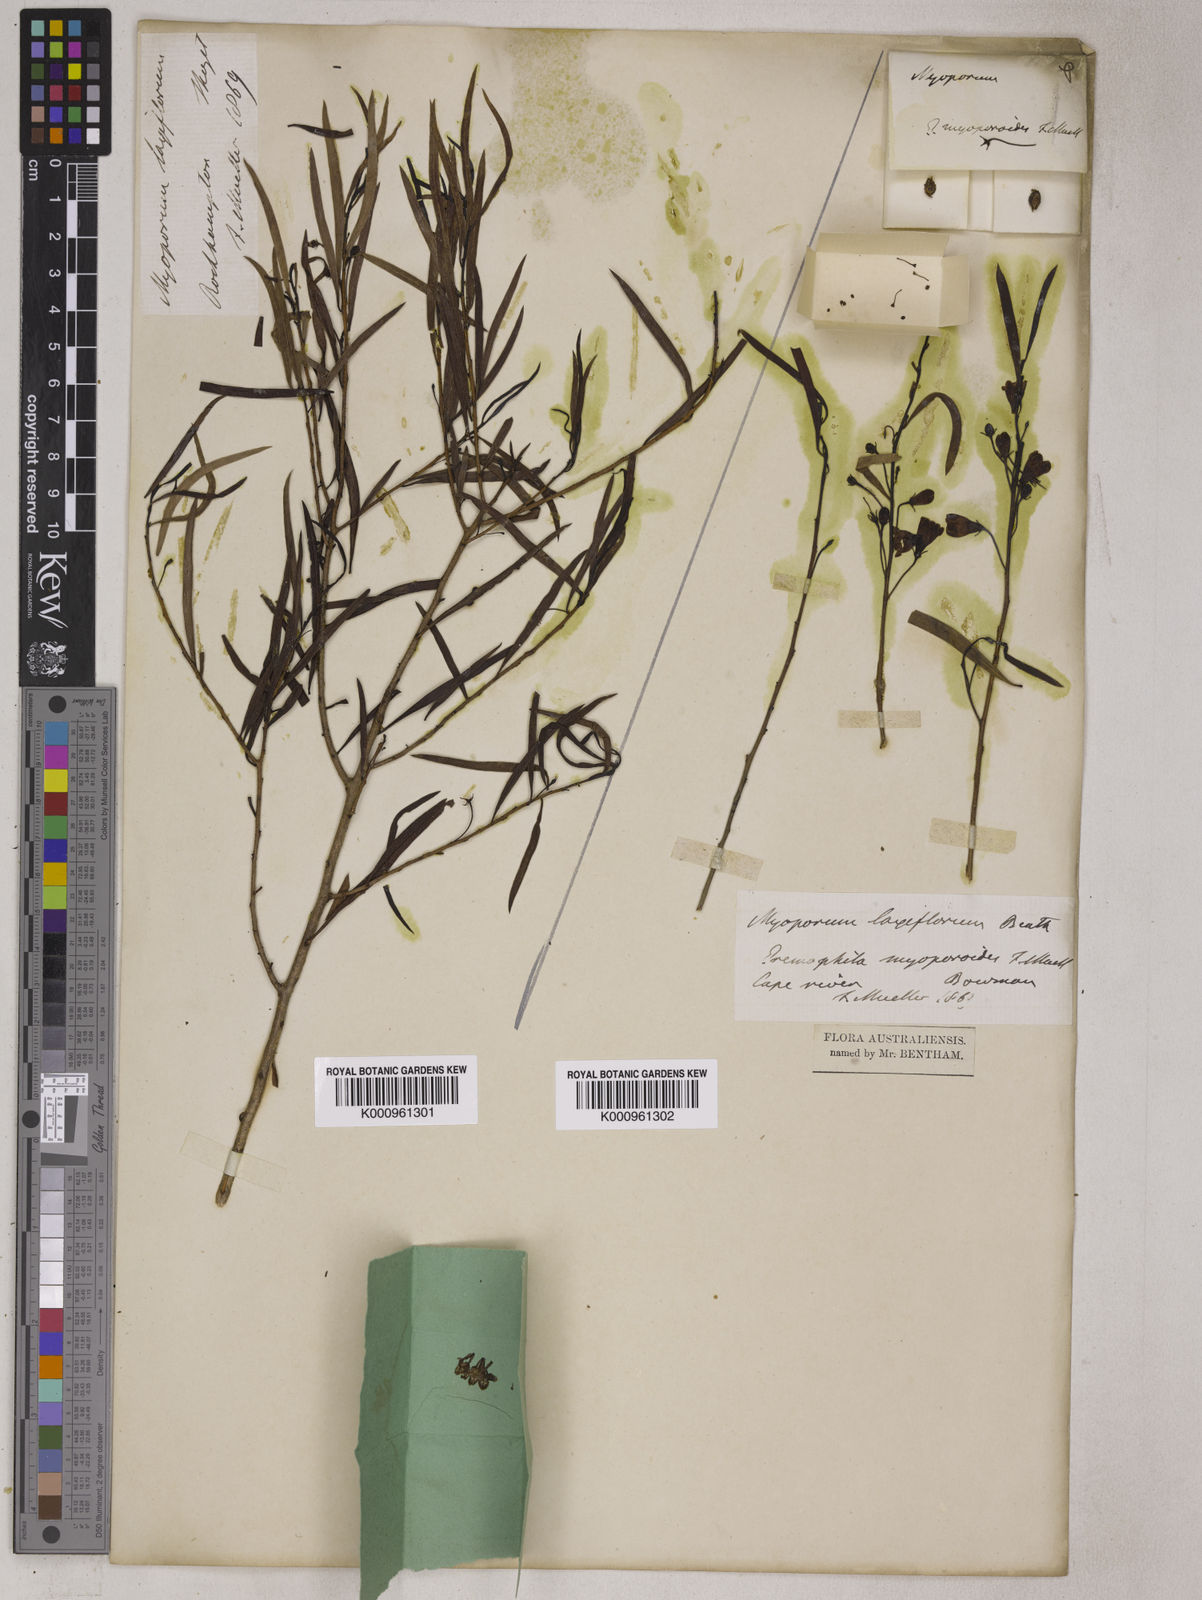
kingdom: Plantae
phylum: Tracheophyta
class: Magnoliopsida
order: Lamiales
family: Scrophulariaceae
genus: Eremophila
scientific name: Eremophila deserti
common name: Ellangowan-poisonbush
